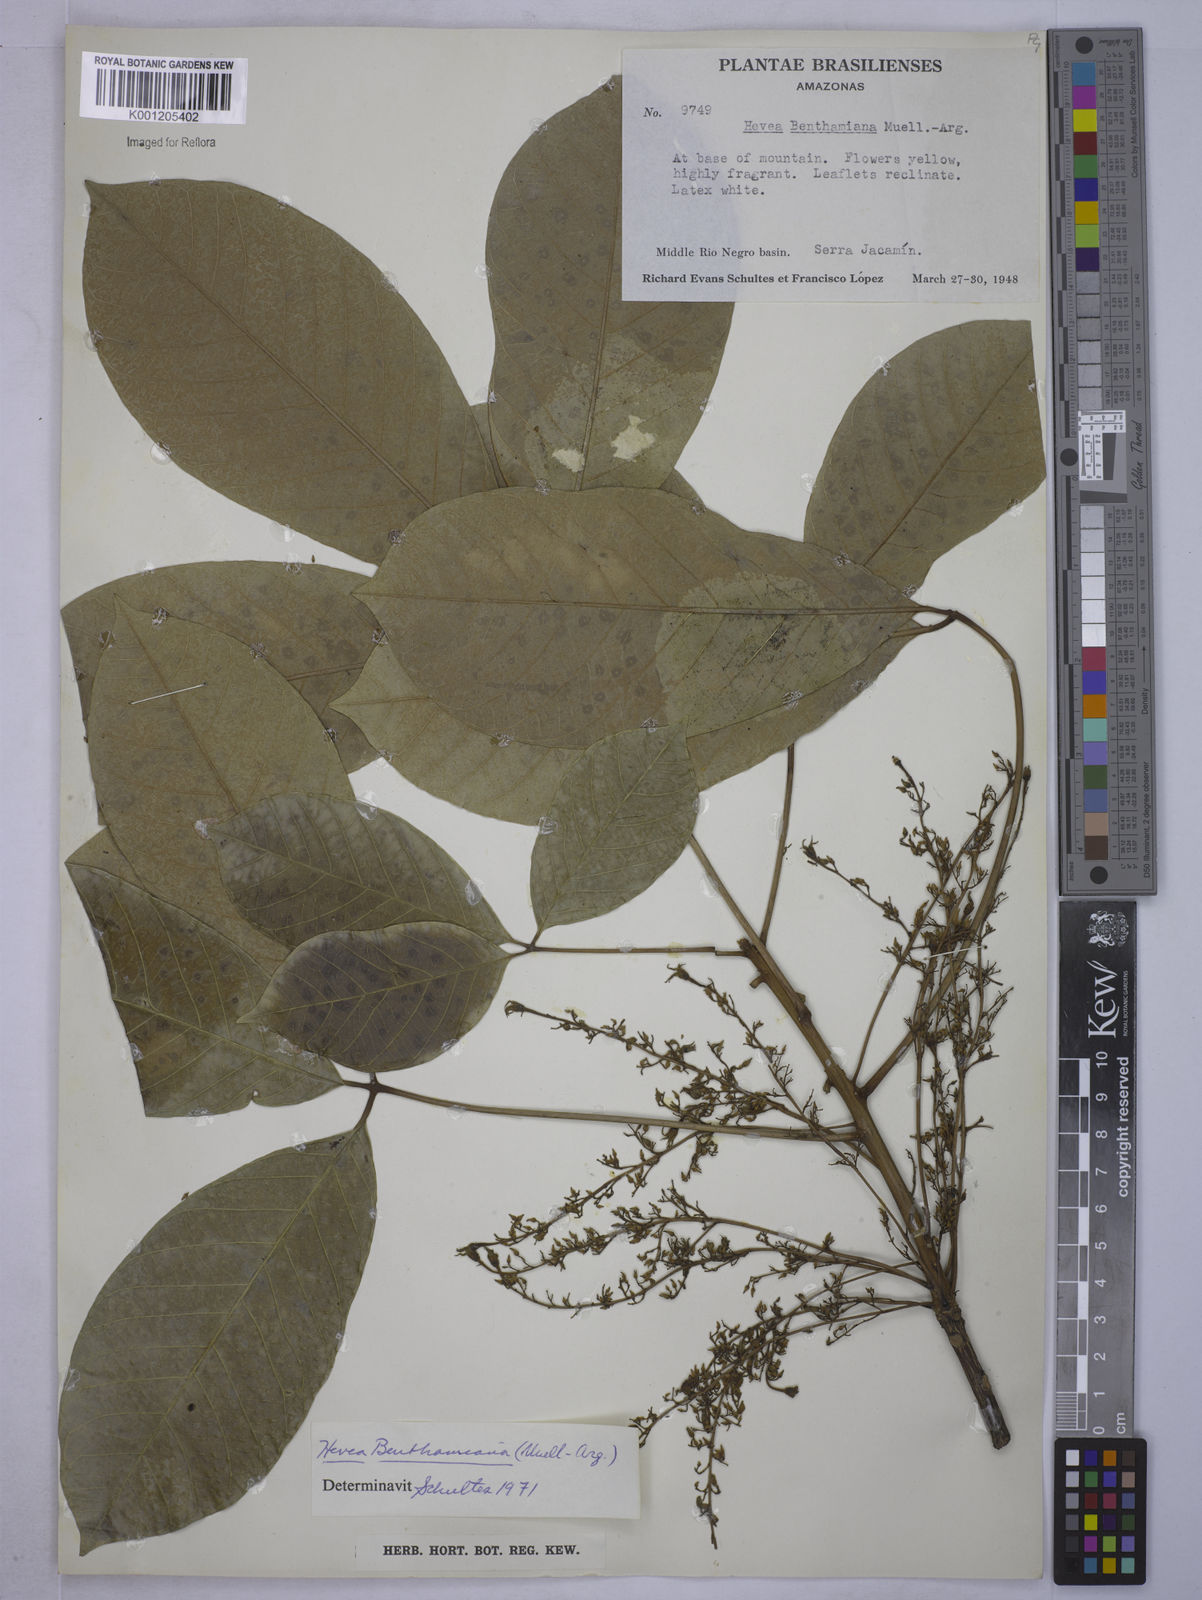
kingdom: Plantae
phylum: Tracheophyta
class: Magnoliopsida
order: Malpighiales
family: Euphorbiaceae
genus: Hevea
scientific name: Hevea
